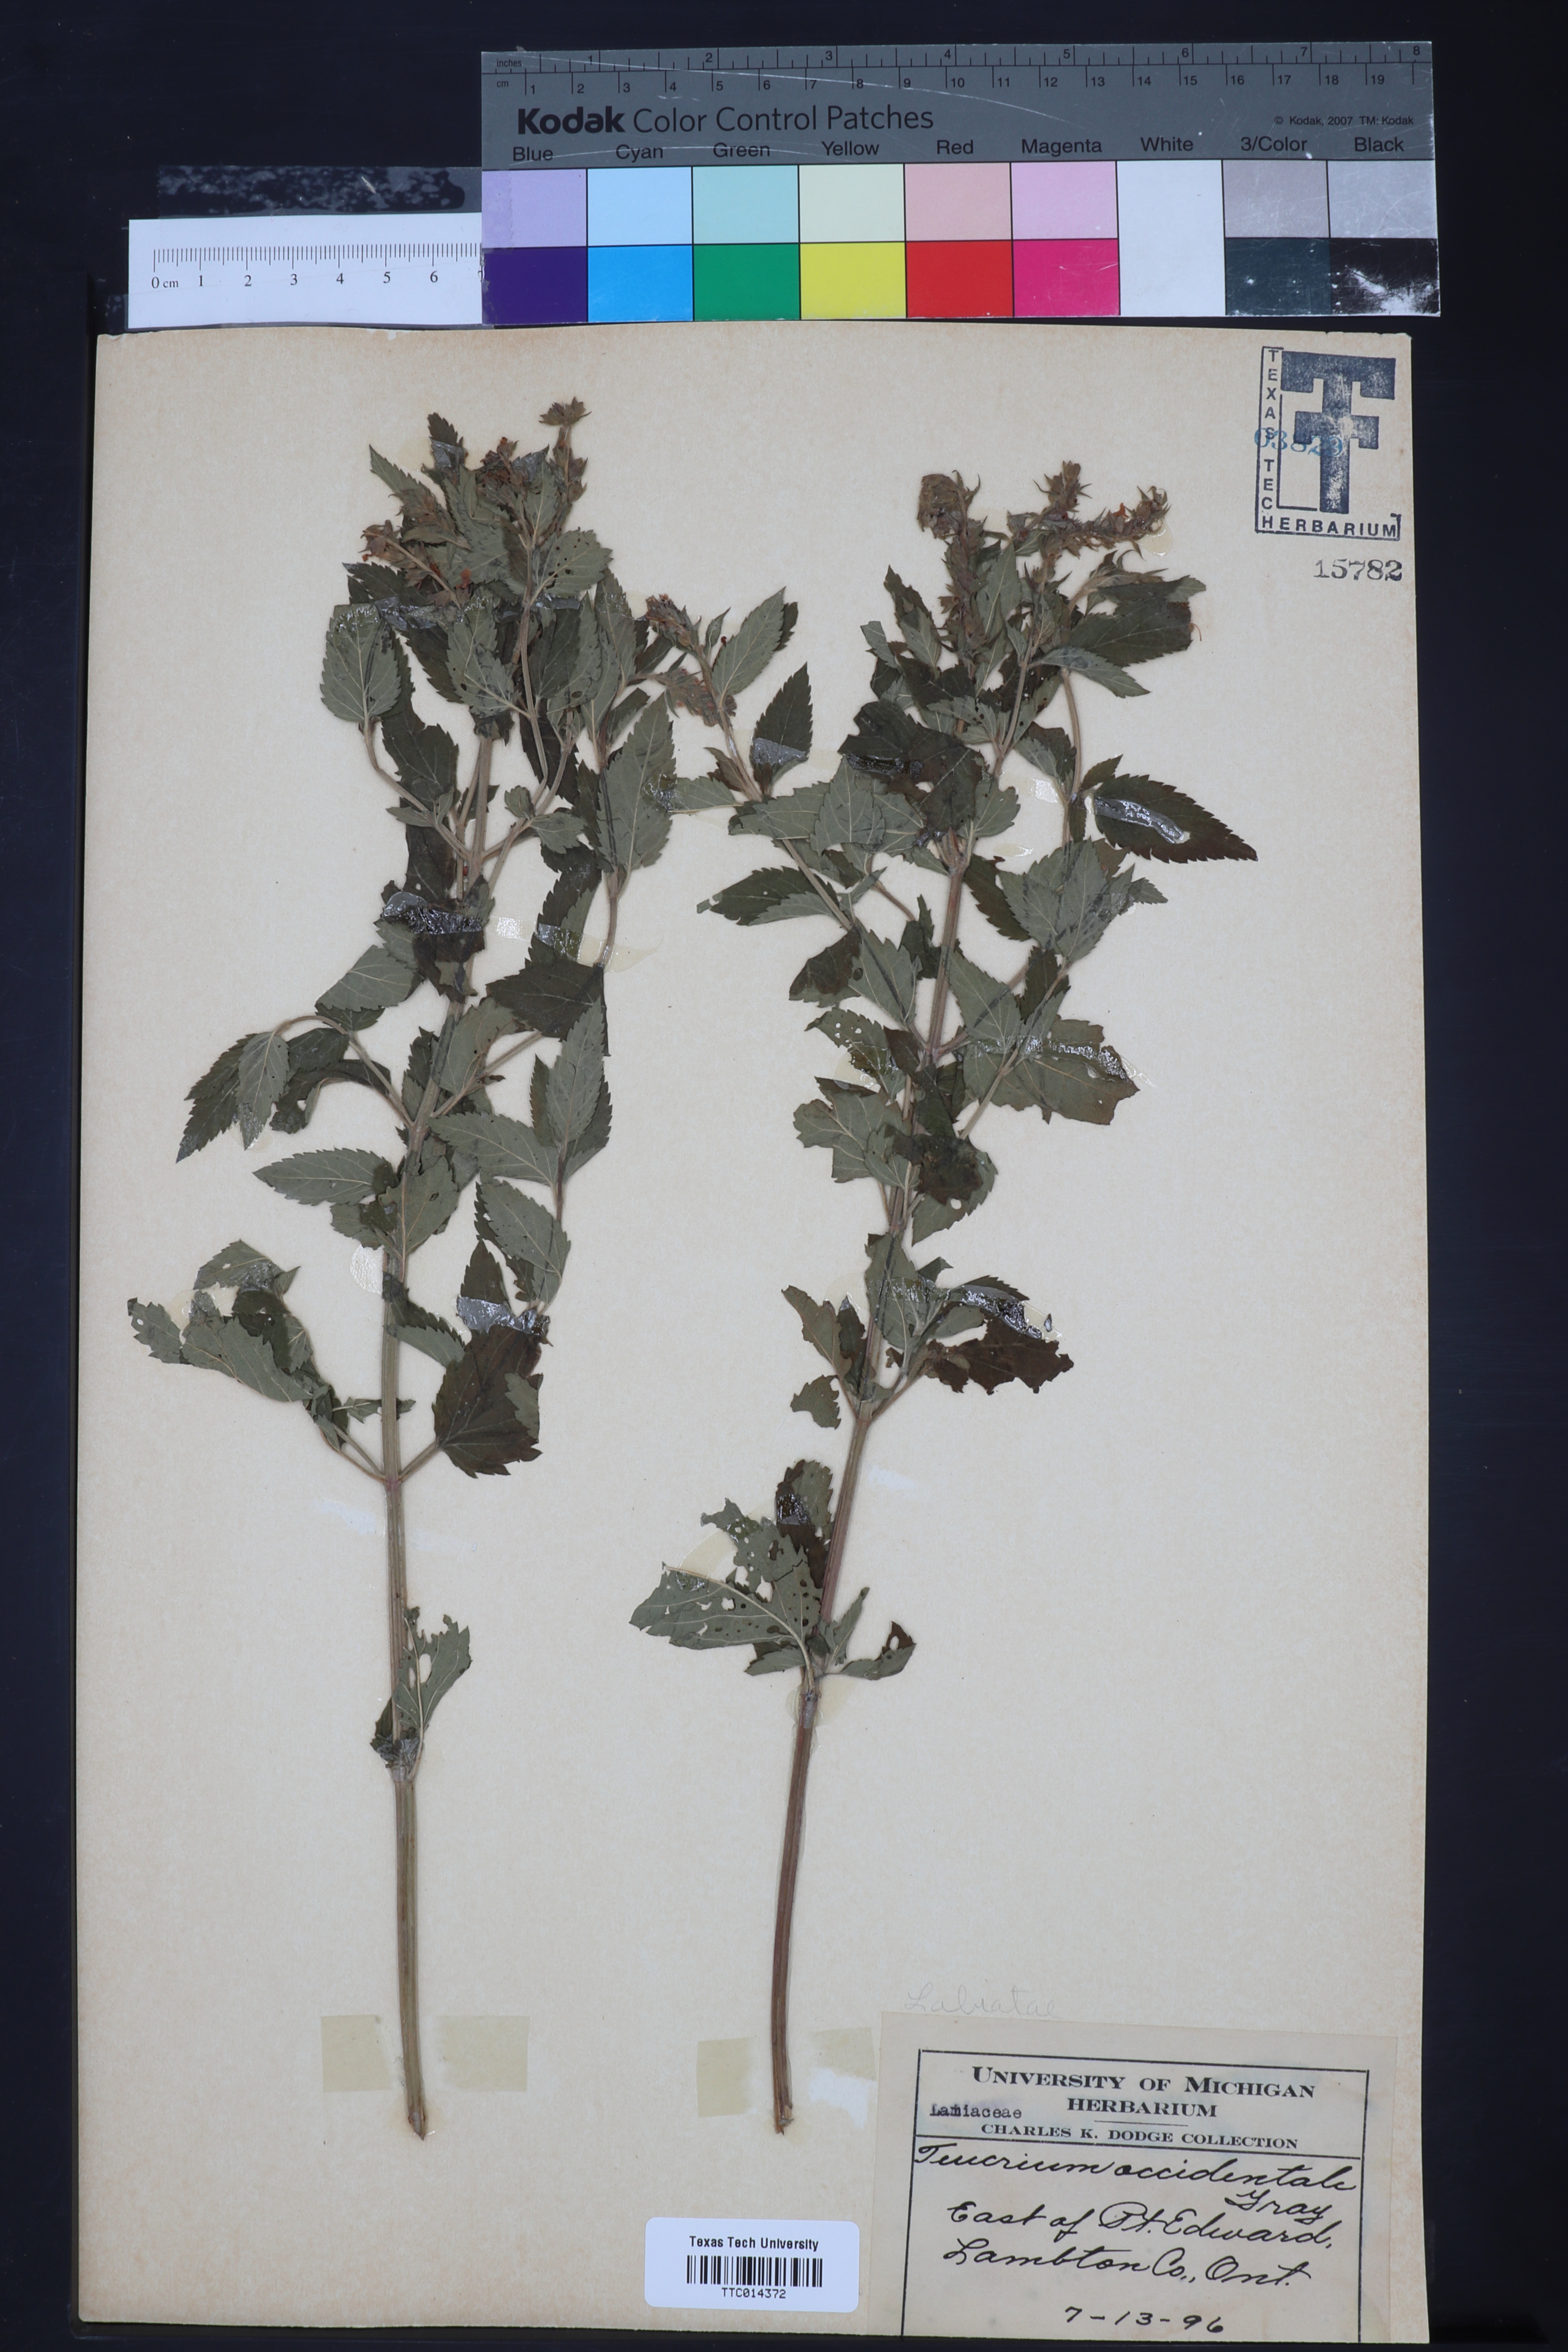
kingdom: Plantae
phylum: Tracheophyta
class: Magnoliopsida
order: Lamiales
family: Lamiaceae
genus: Teucrium
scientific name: Teucrium canadense
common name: American germander
